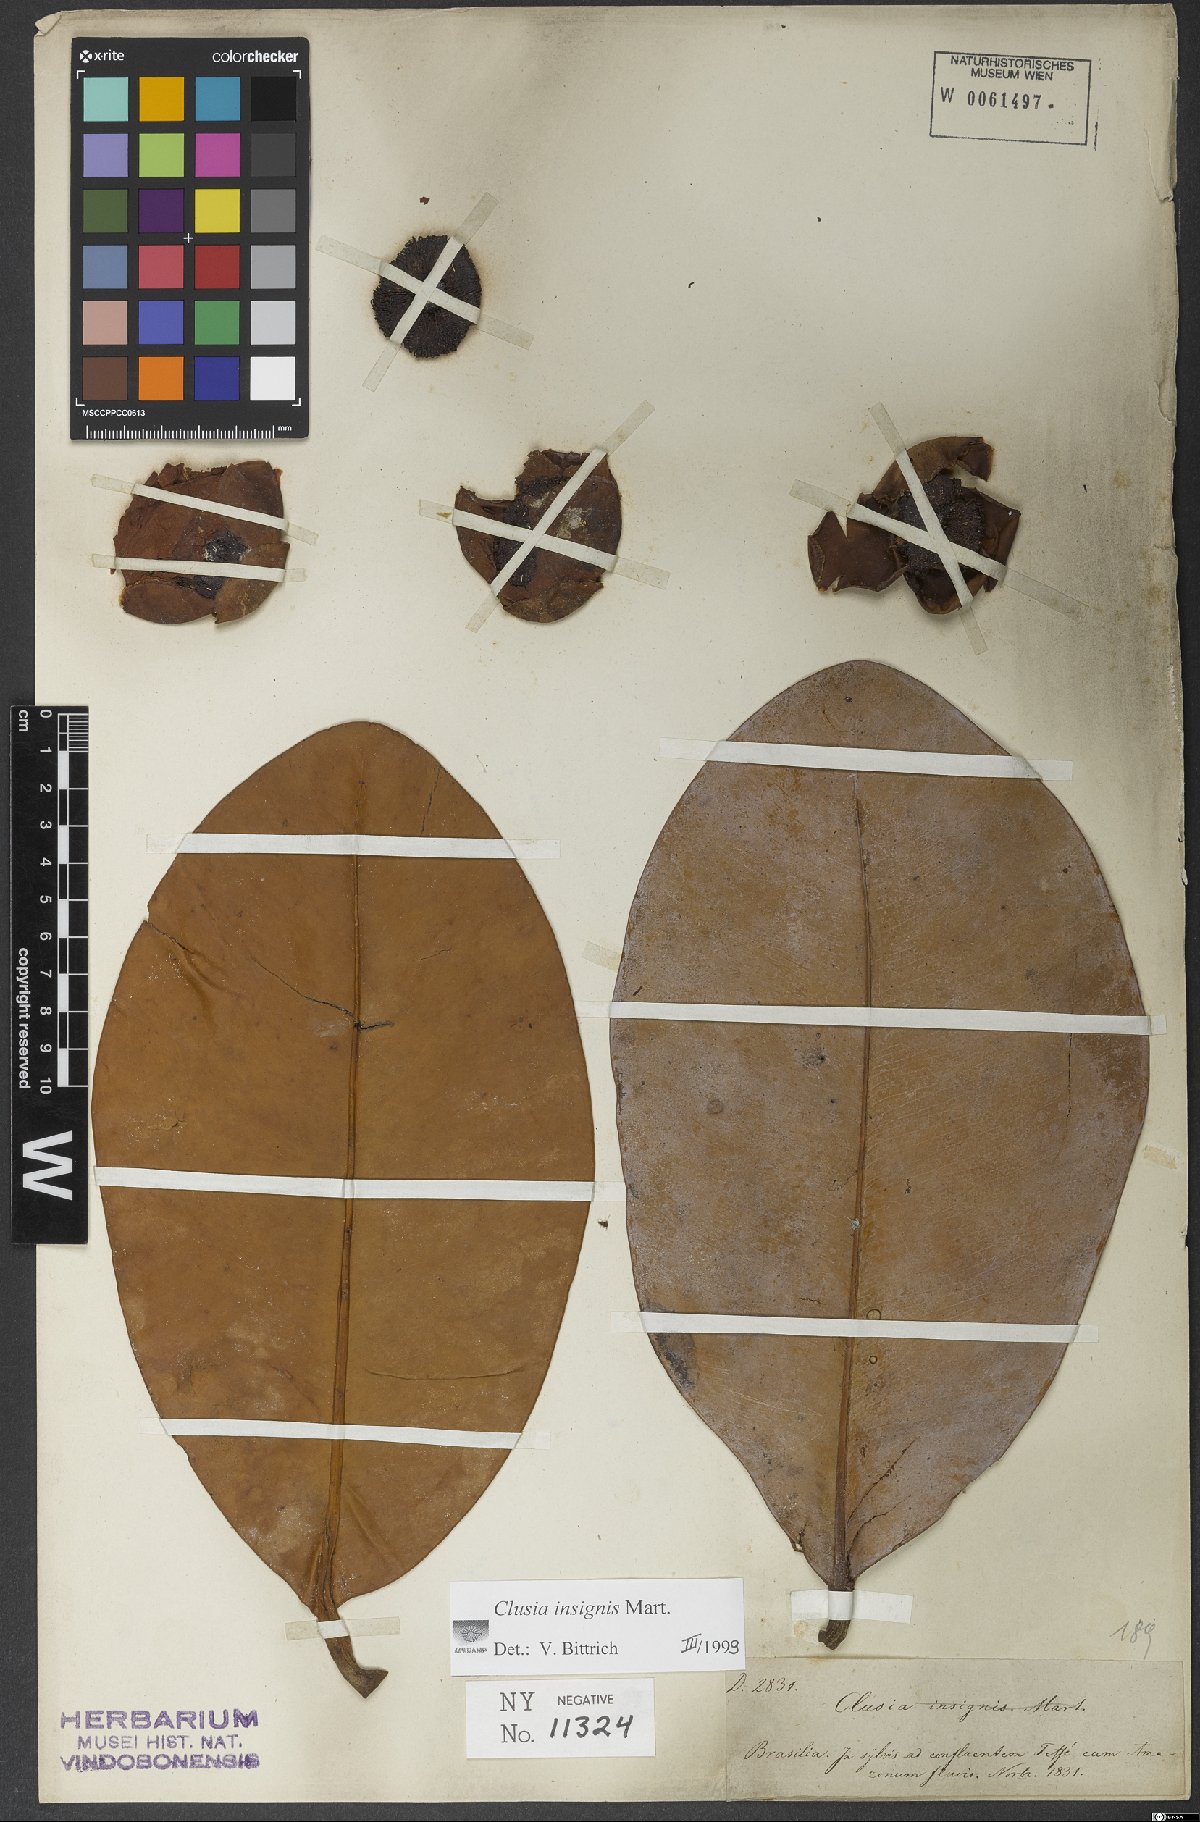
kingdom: Plantae
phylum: Tracheophyta
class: Magnoliopsida
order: Malpighiales
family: Clusiaceae
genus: Clusia
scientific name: Clusia insignis
